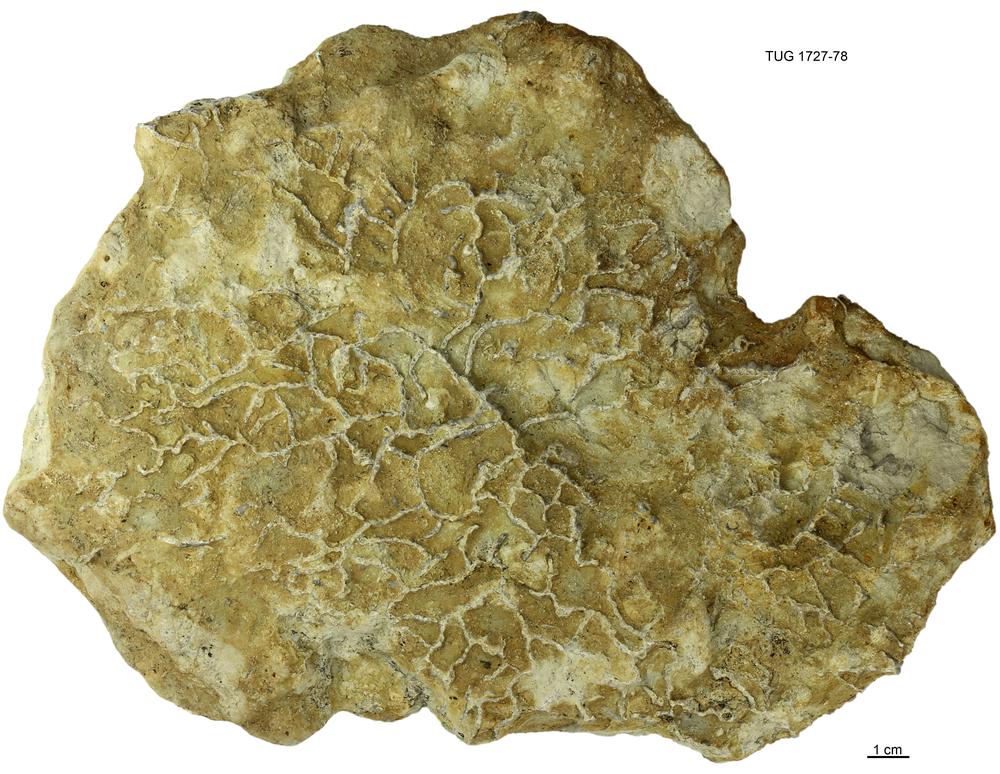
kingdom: Animalia
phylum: Cnidaria
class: Anthozoa
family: Cateniporidae
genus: Catenipora
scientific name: Catenipora
